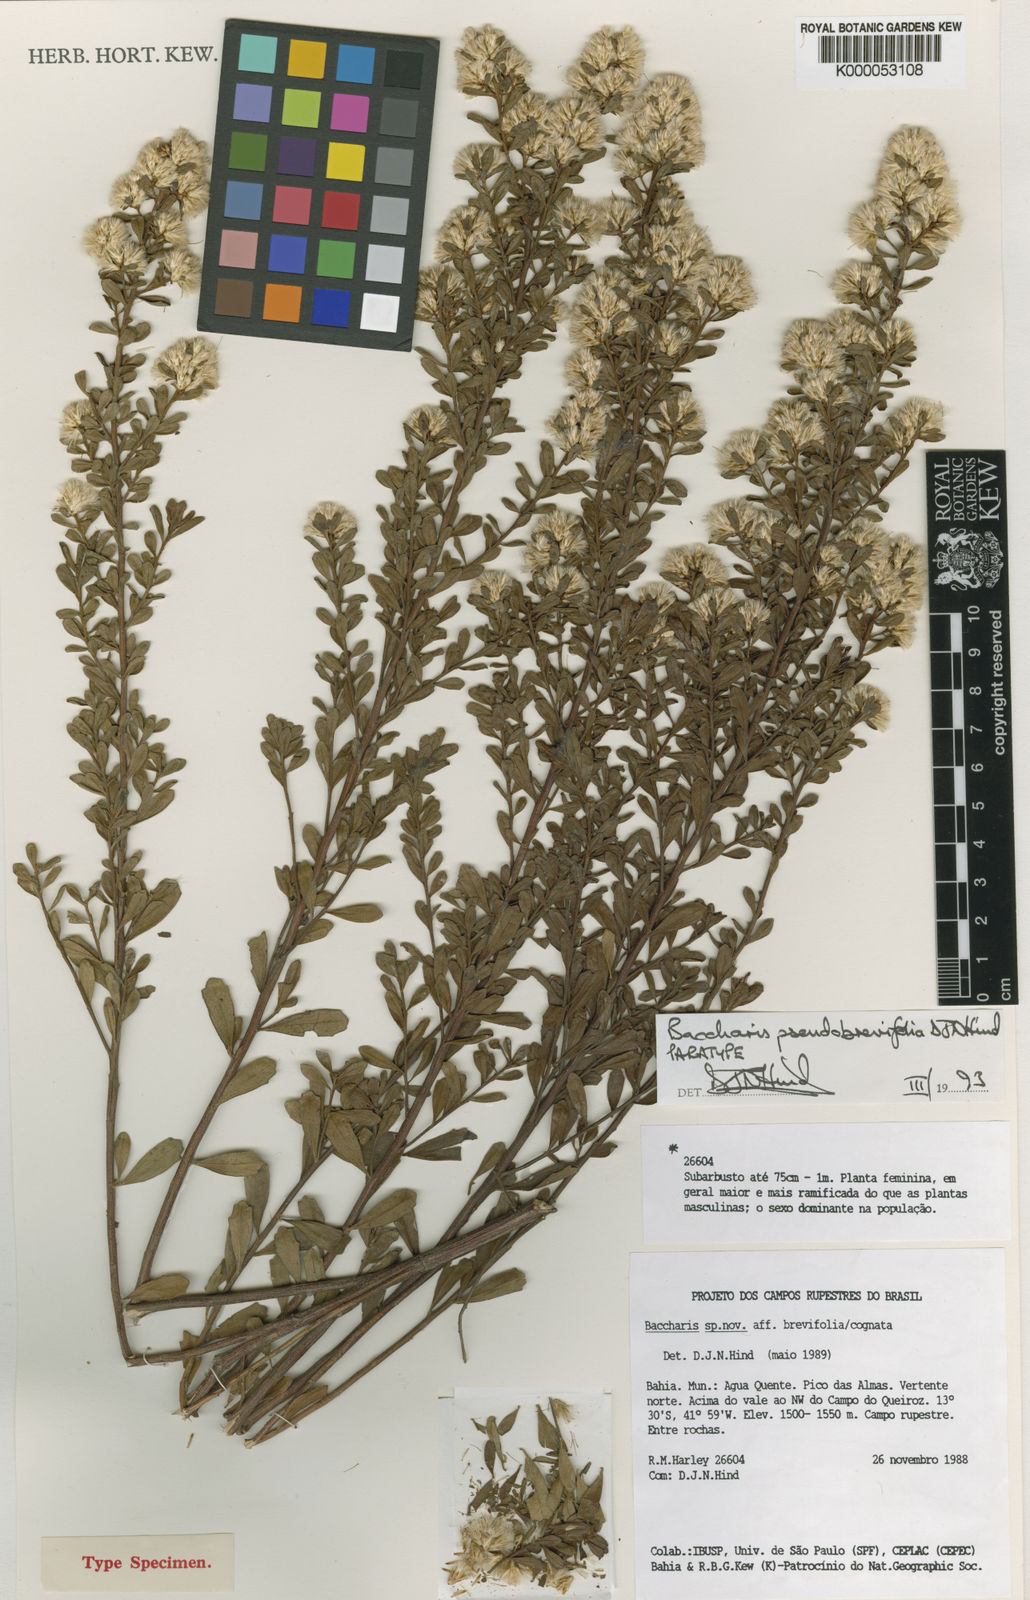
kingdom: Plantae
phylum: Tracheophyta
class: Magnoliopsida
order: Asterales
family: Asteraceae
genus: Baccharis
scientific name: Baccharis brevifolia
